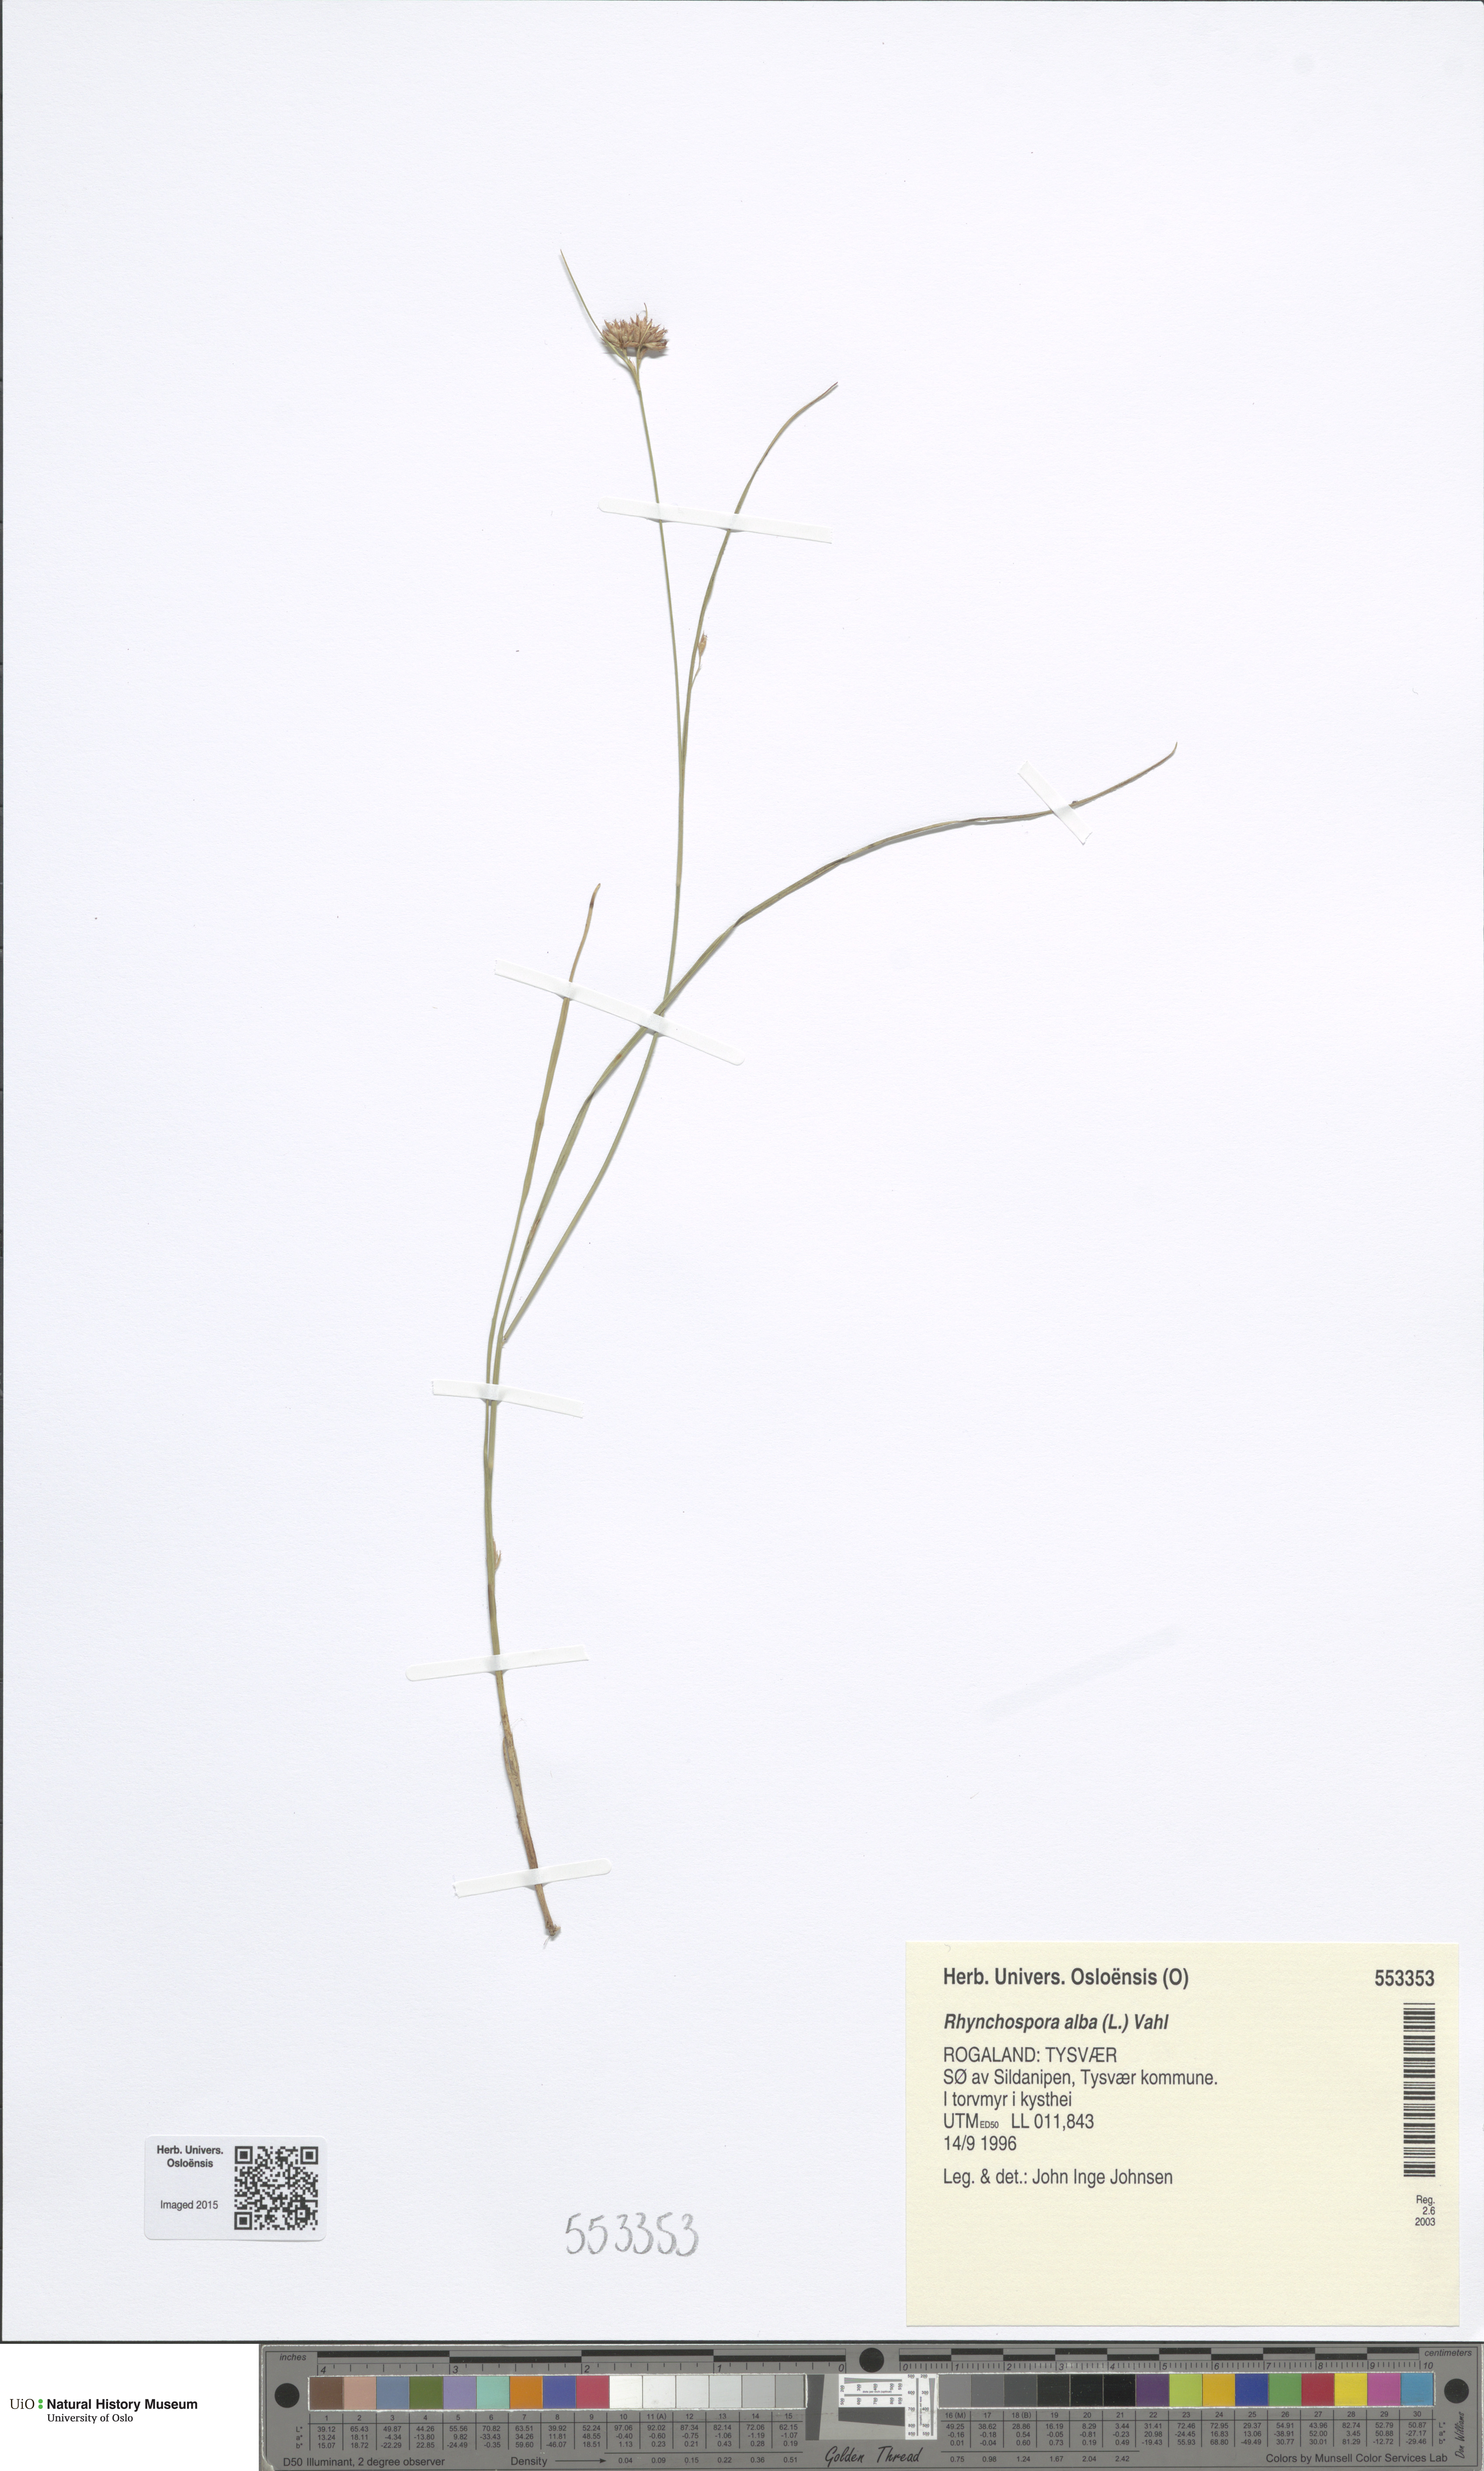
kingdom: Plantae
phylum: Tracheophyta
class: Liliopsida
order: Poales
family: Cyperaceae
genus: Rhynchospora
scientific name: Rhynchospora alba
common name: White beak-sedge
